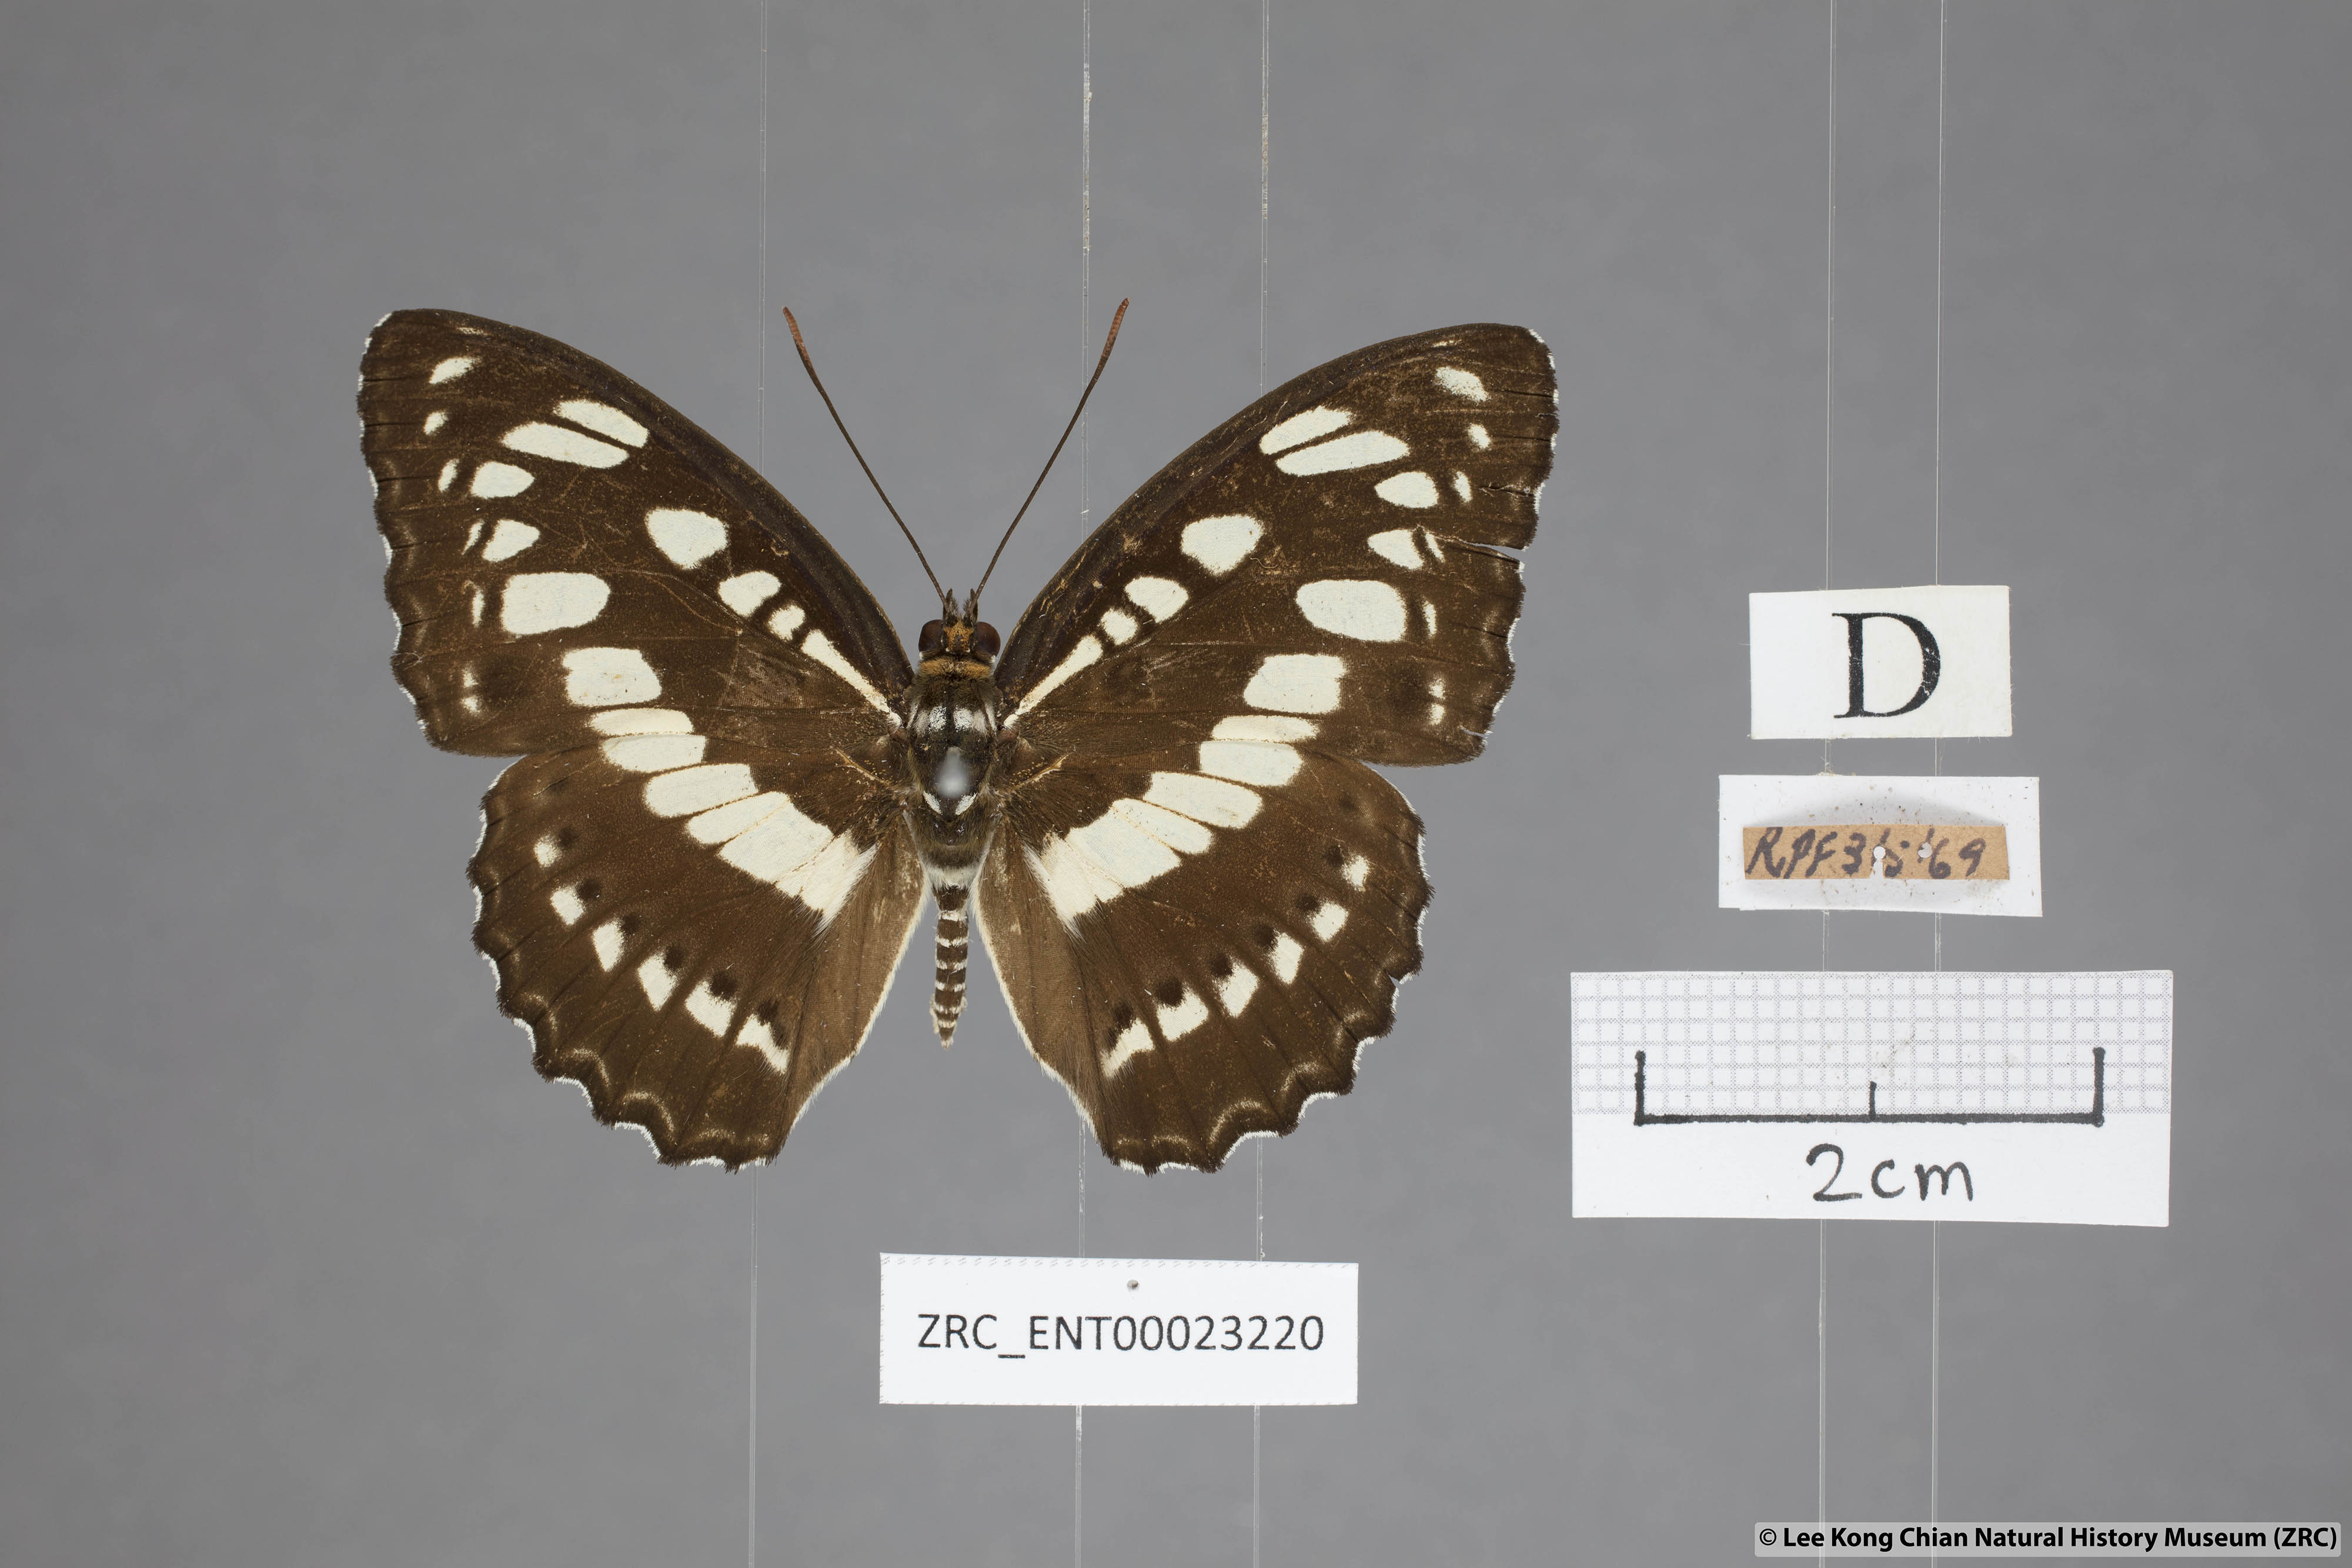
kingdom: Animalia
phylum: Arthropoda
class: Insecta
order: Lepidoptera
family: Nymphalidae
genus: Parathyma
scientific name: Parathyma perius
